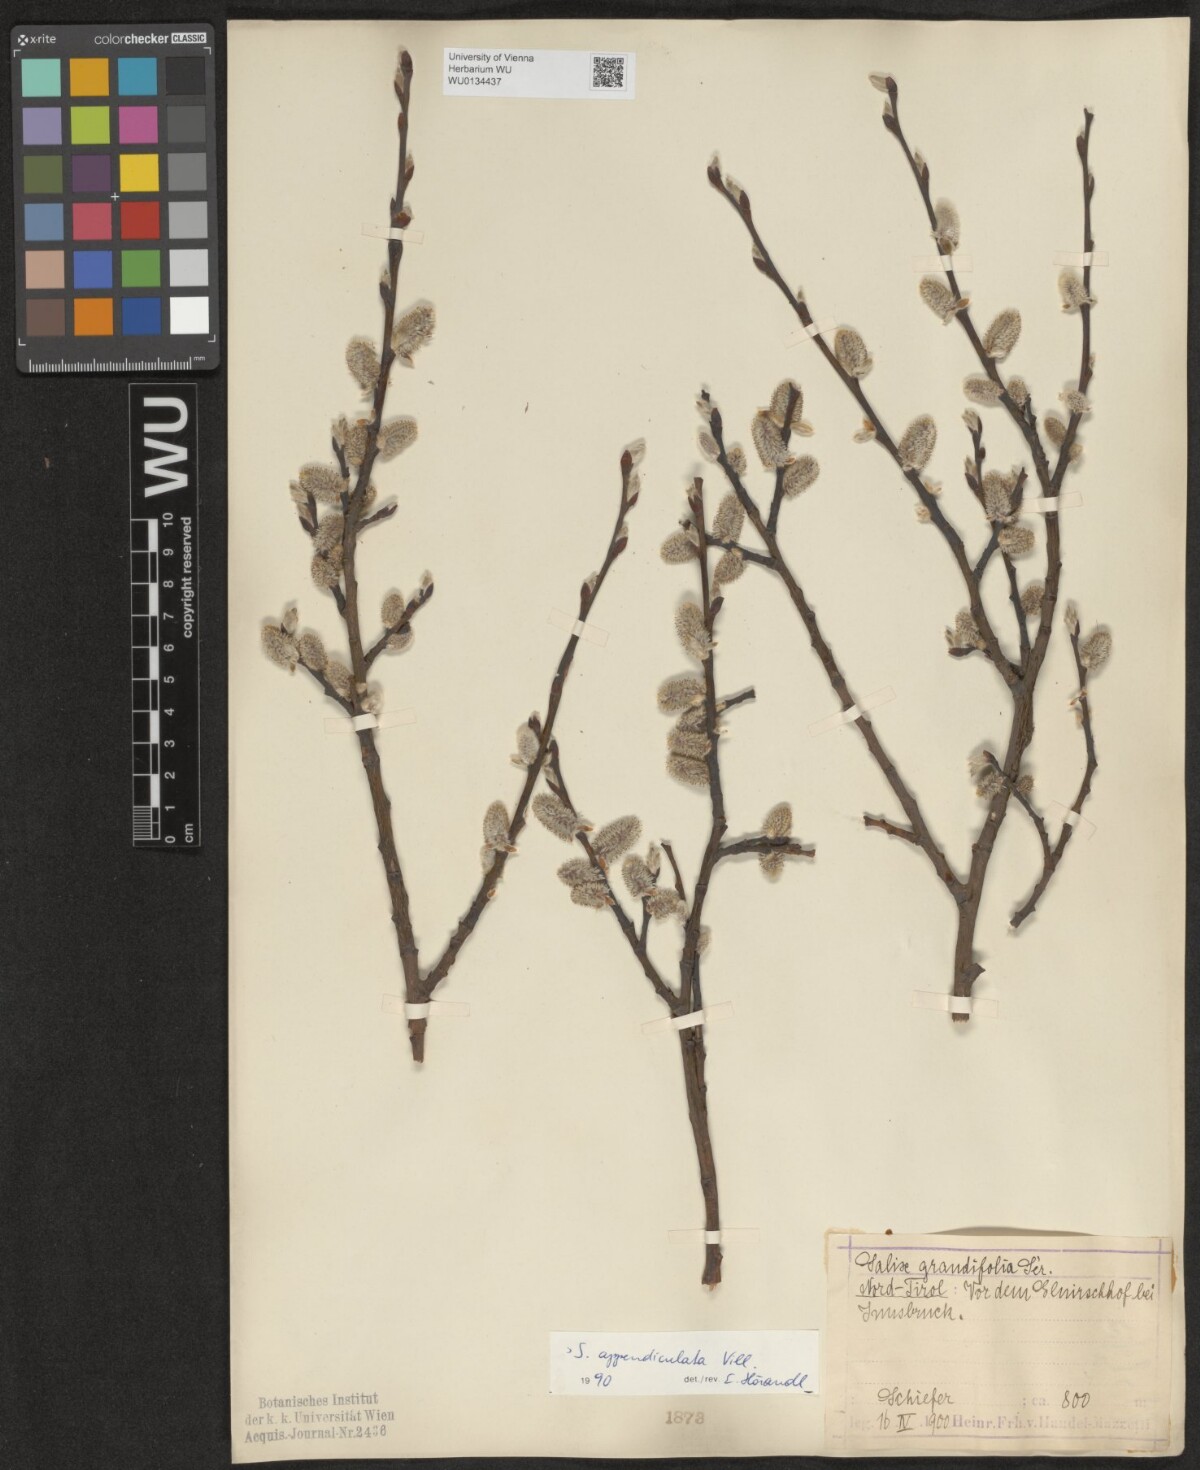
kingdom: Plantae
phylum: Tracheophyta
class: Magnoliopsida
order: Malpighiales
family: Salicaceae
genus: Salix
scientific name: Salix appendiculata
